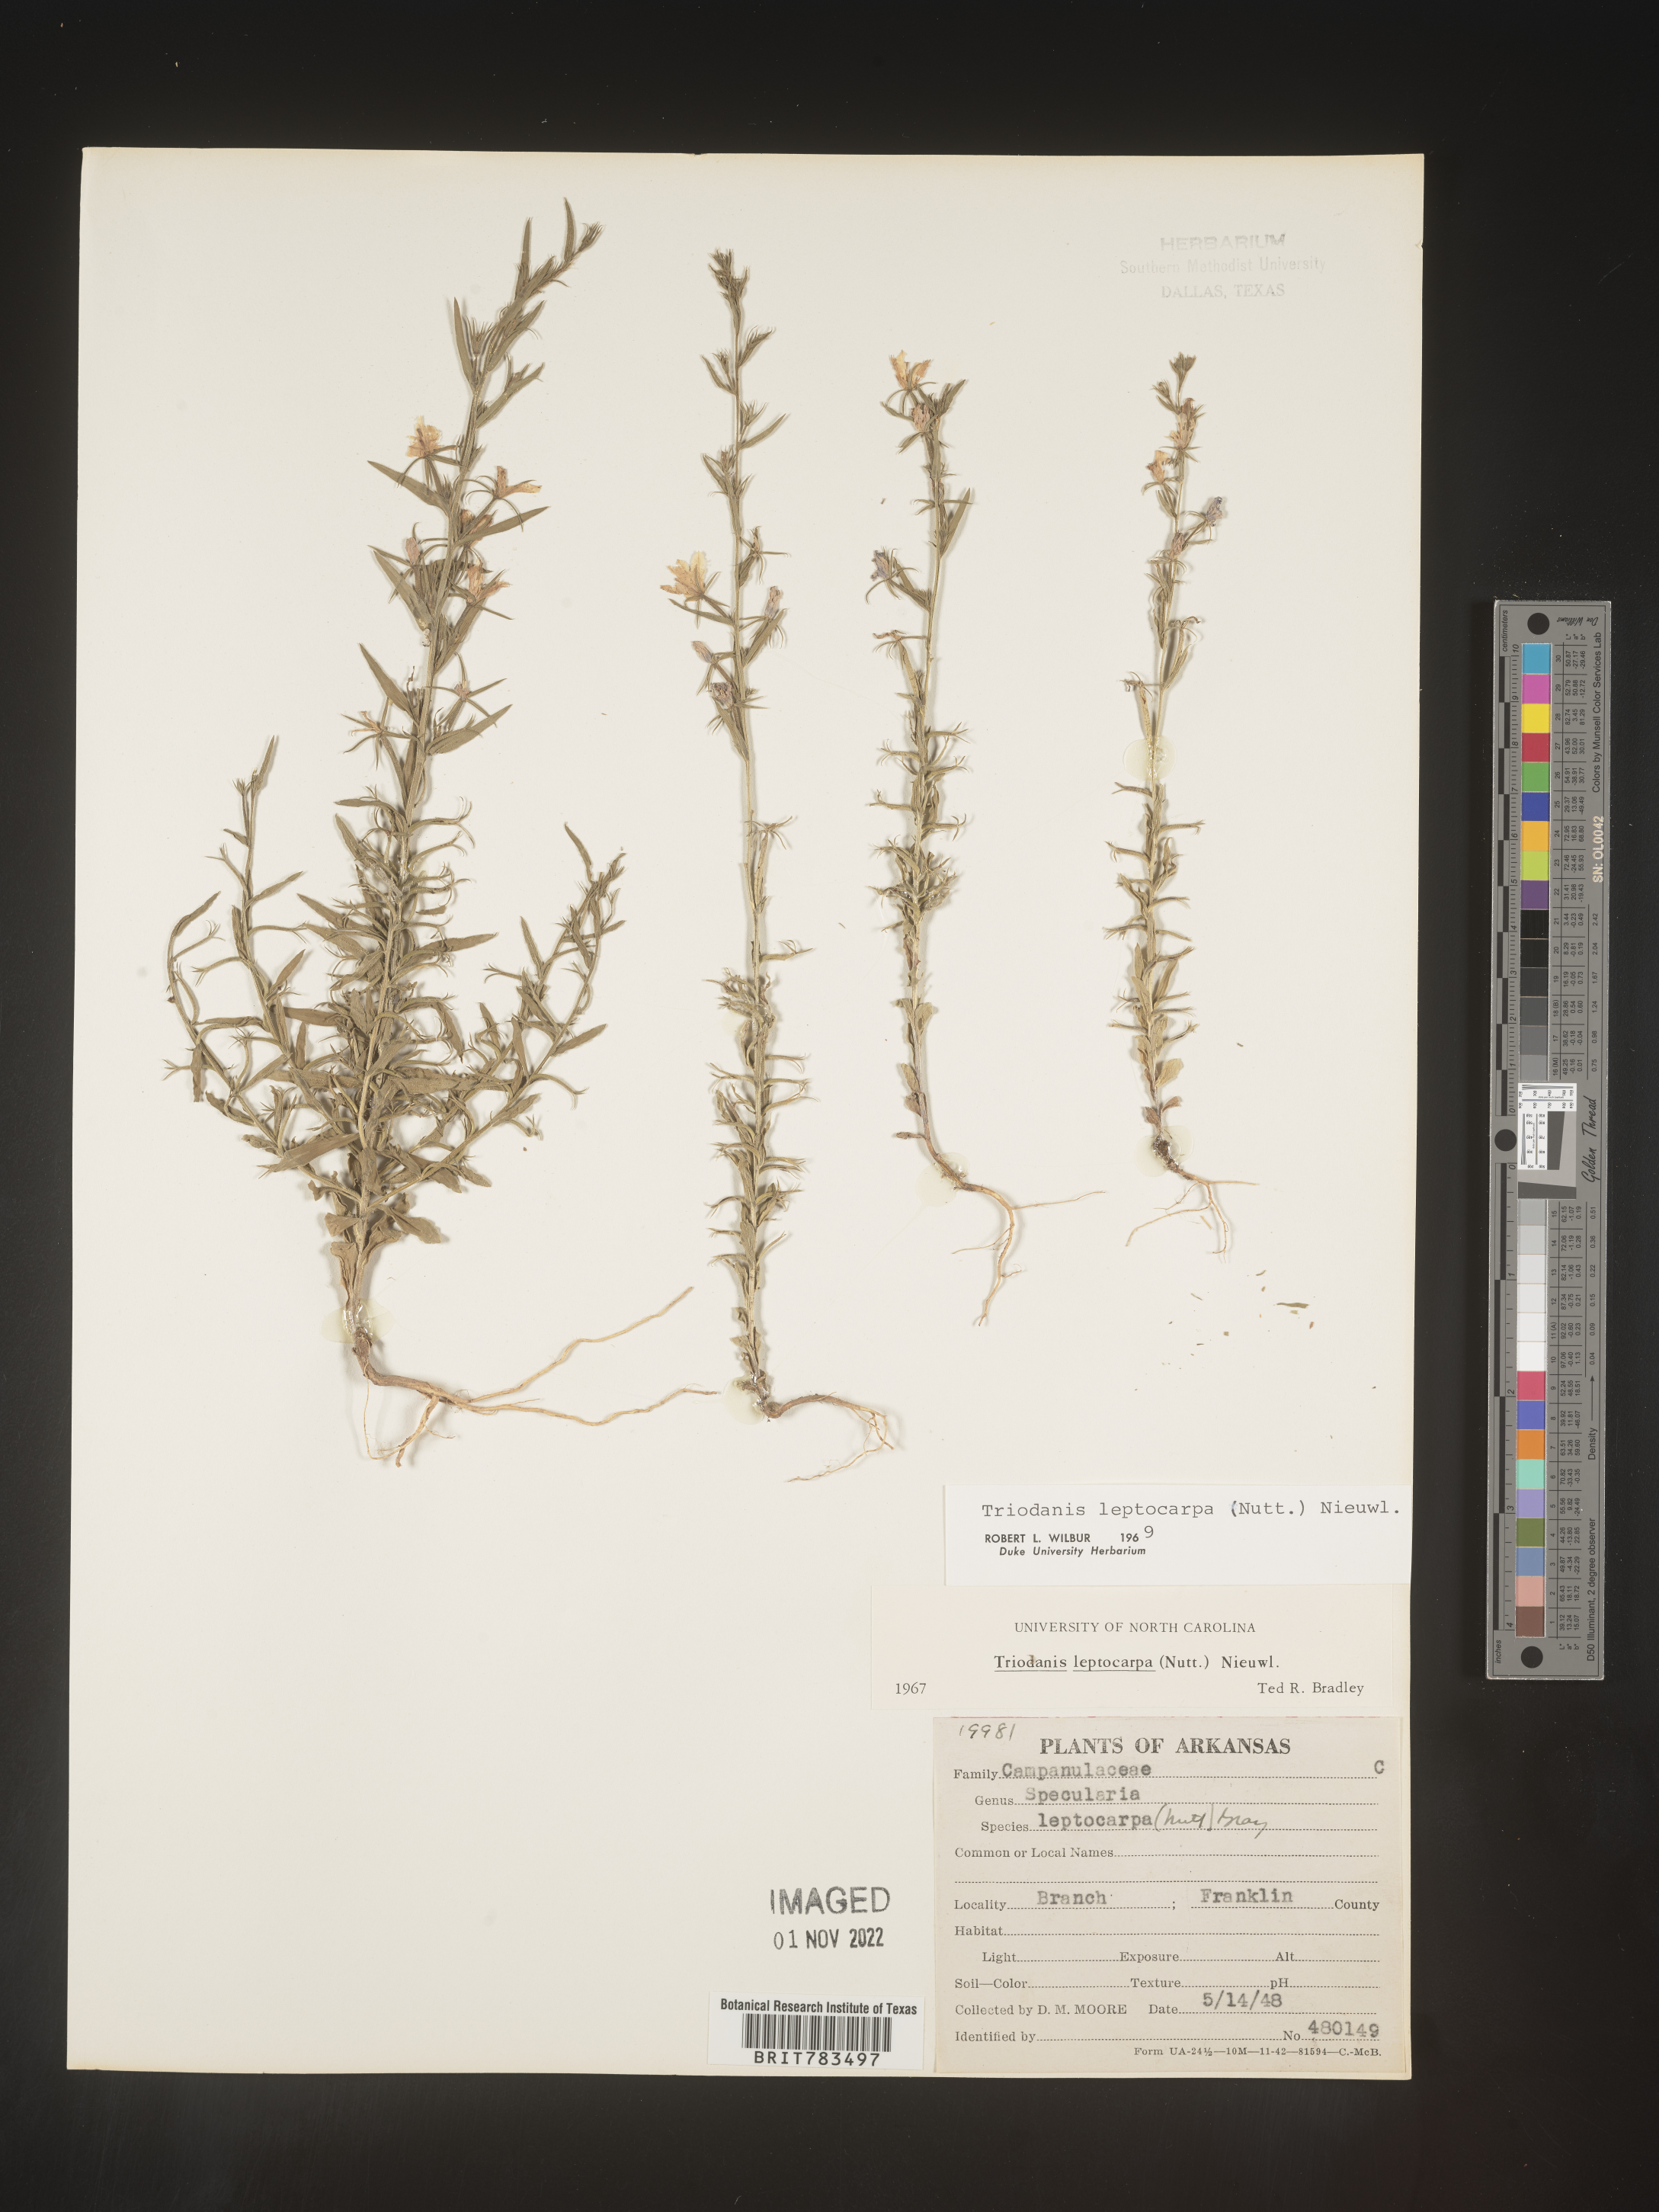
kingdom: Plantae
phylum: Tracheophyta
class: Magnoliopsida
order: Asterales
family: Campanulaceae
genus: Triodanis
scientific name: Triodanis leptocarpa
